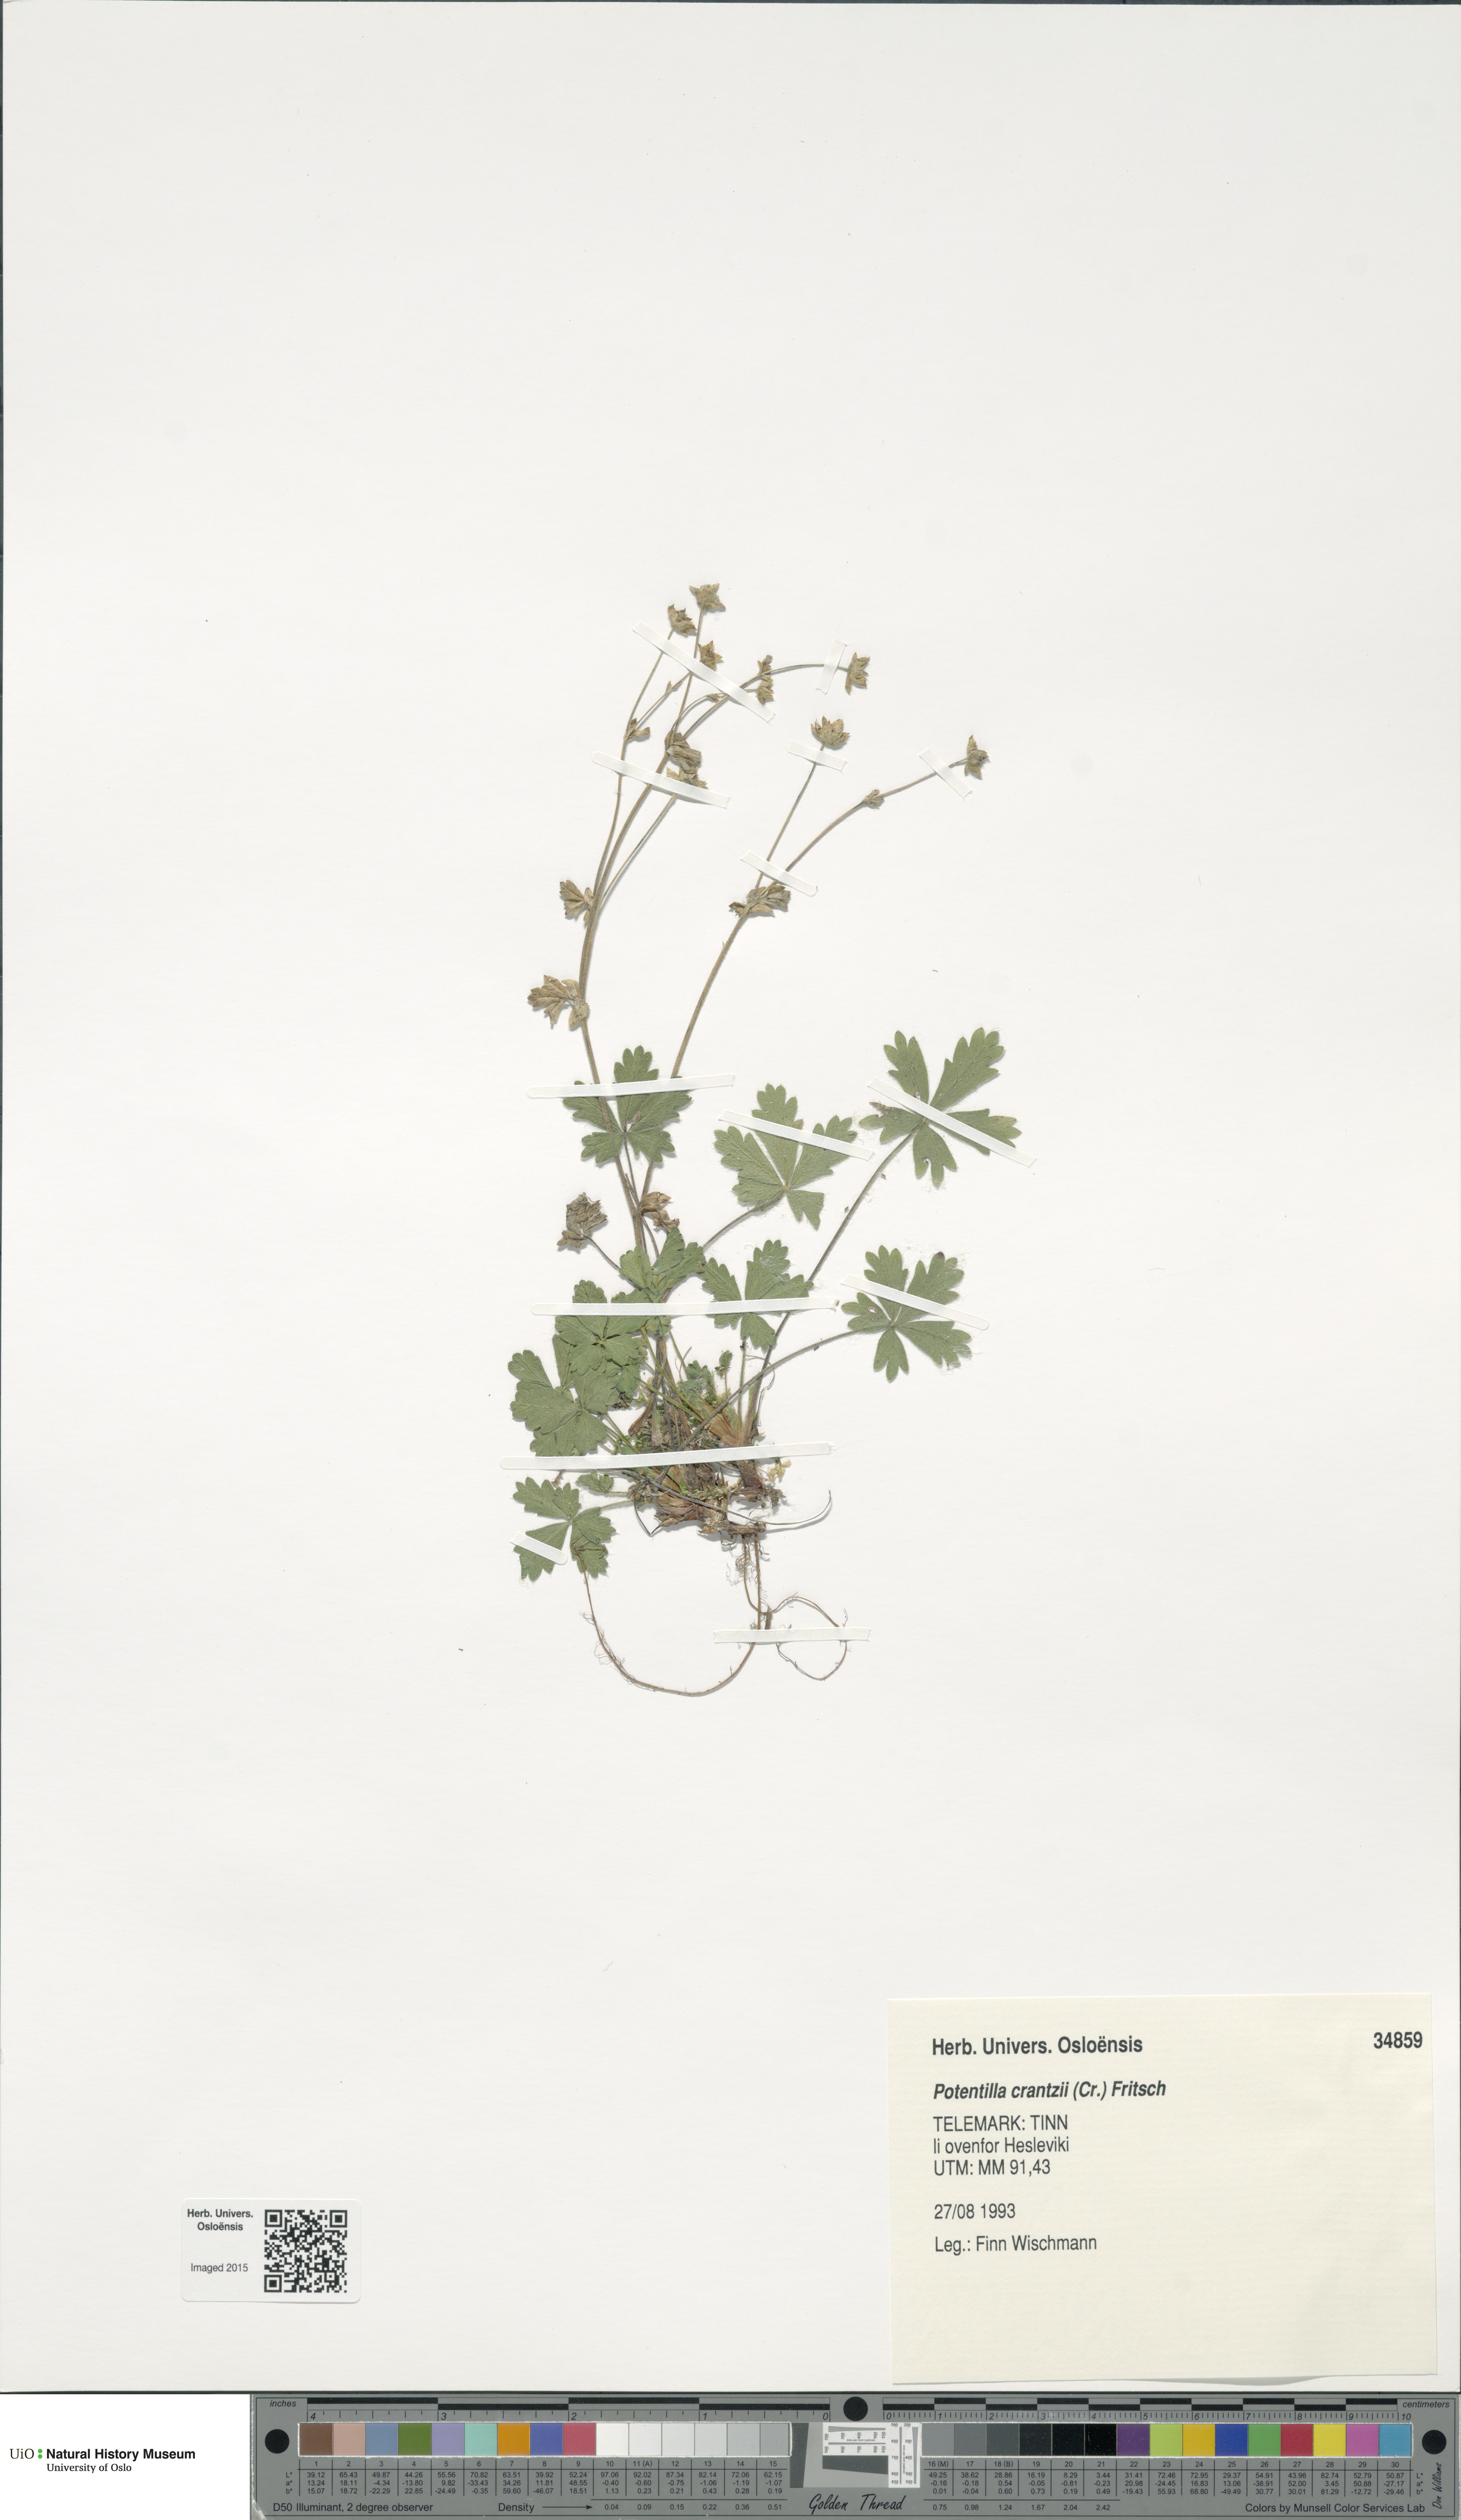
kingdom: Plantae
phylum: Tracheophyta
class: Magnoliopsida
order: Rosales
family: Rosaceae
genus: Potentilla
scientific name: Potentilla crantzii
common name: Alpine cinquefoil
